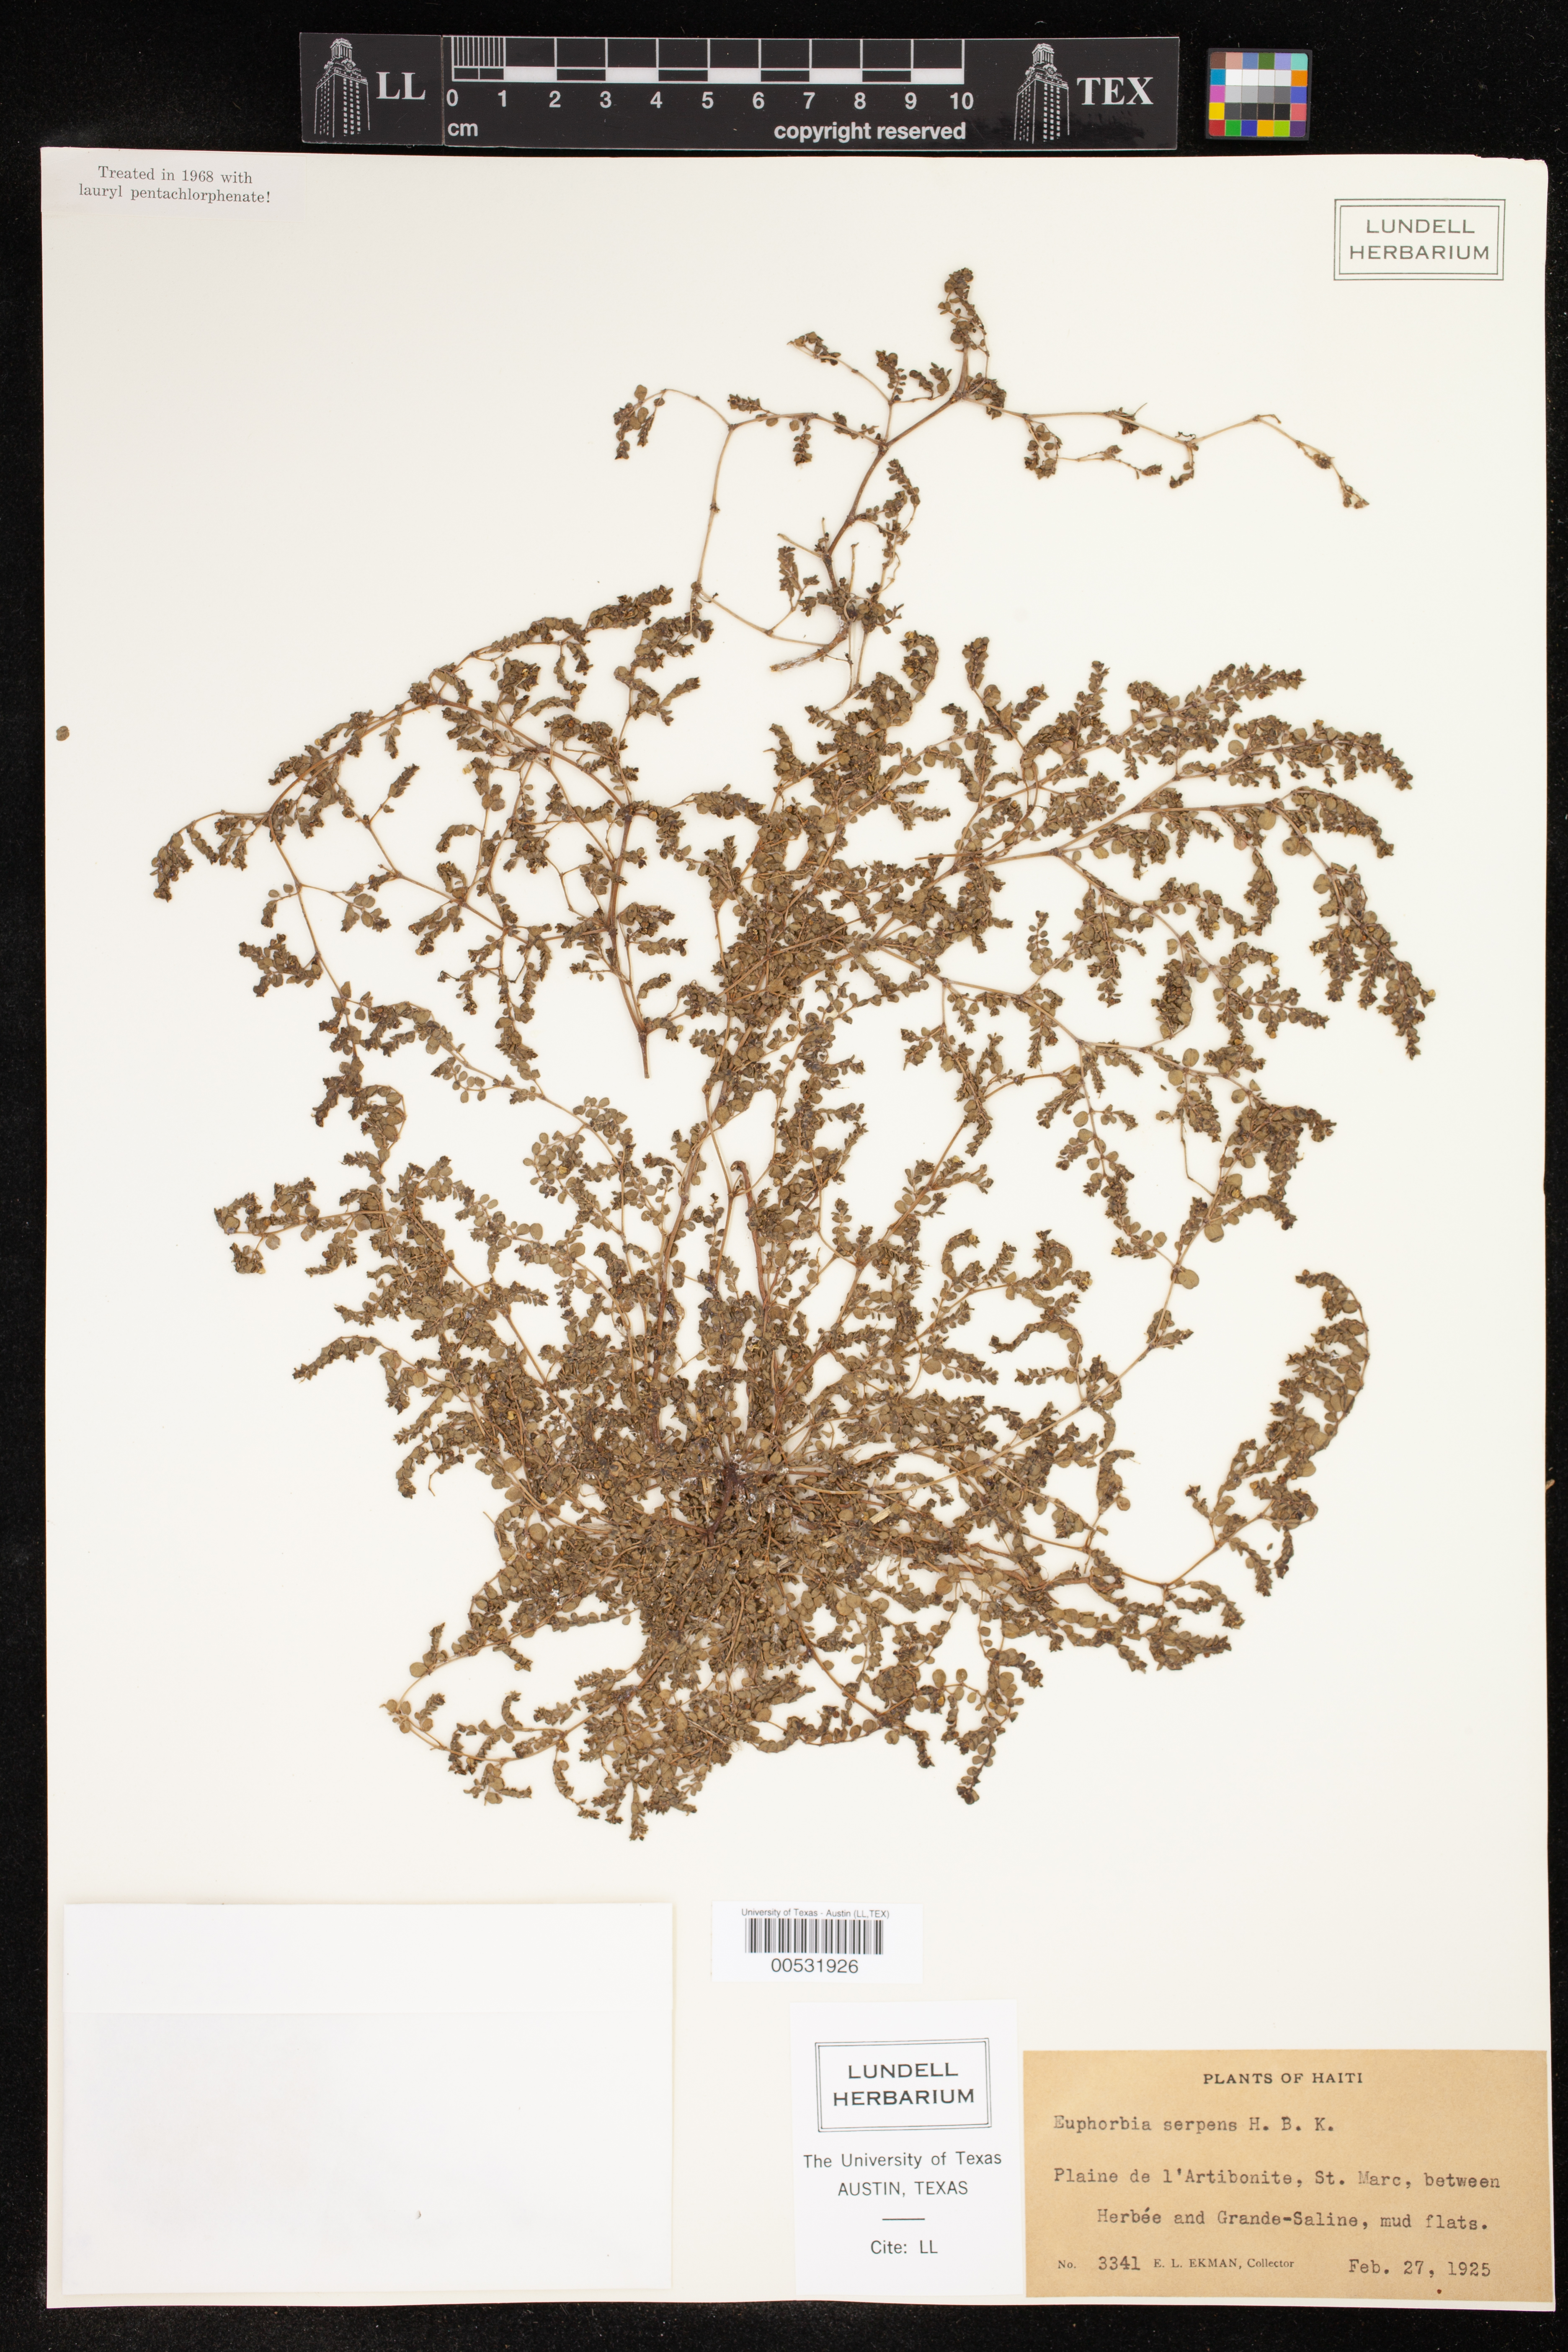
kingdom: Plantae
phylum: Tracheophyta
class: Magnoliopsida
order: Malpighiales
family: Euphorbiaceae
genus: Euphorbia
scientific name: Euphorbia serpens
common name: Matted sandmat
